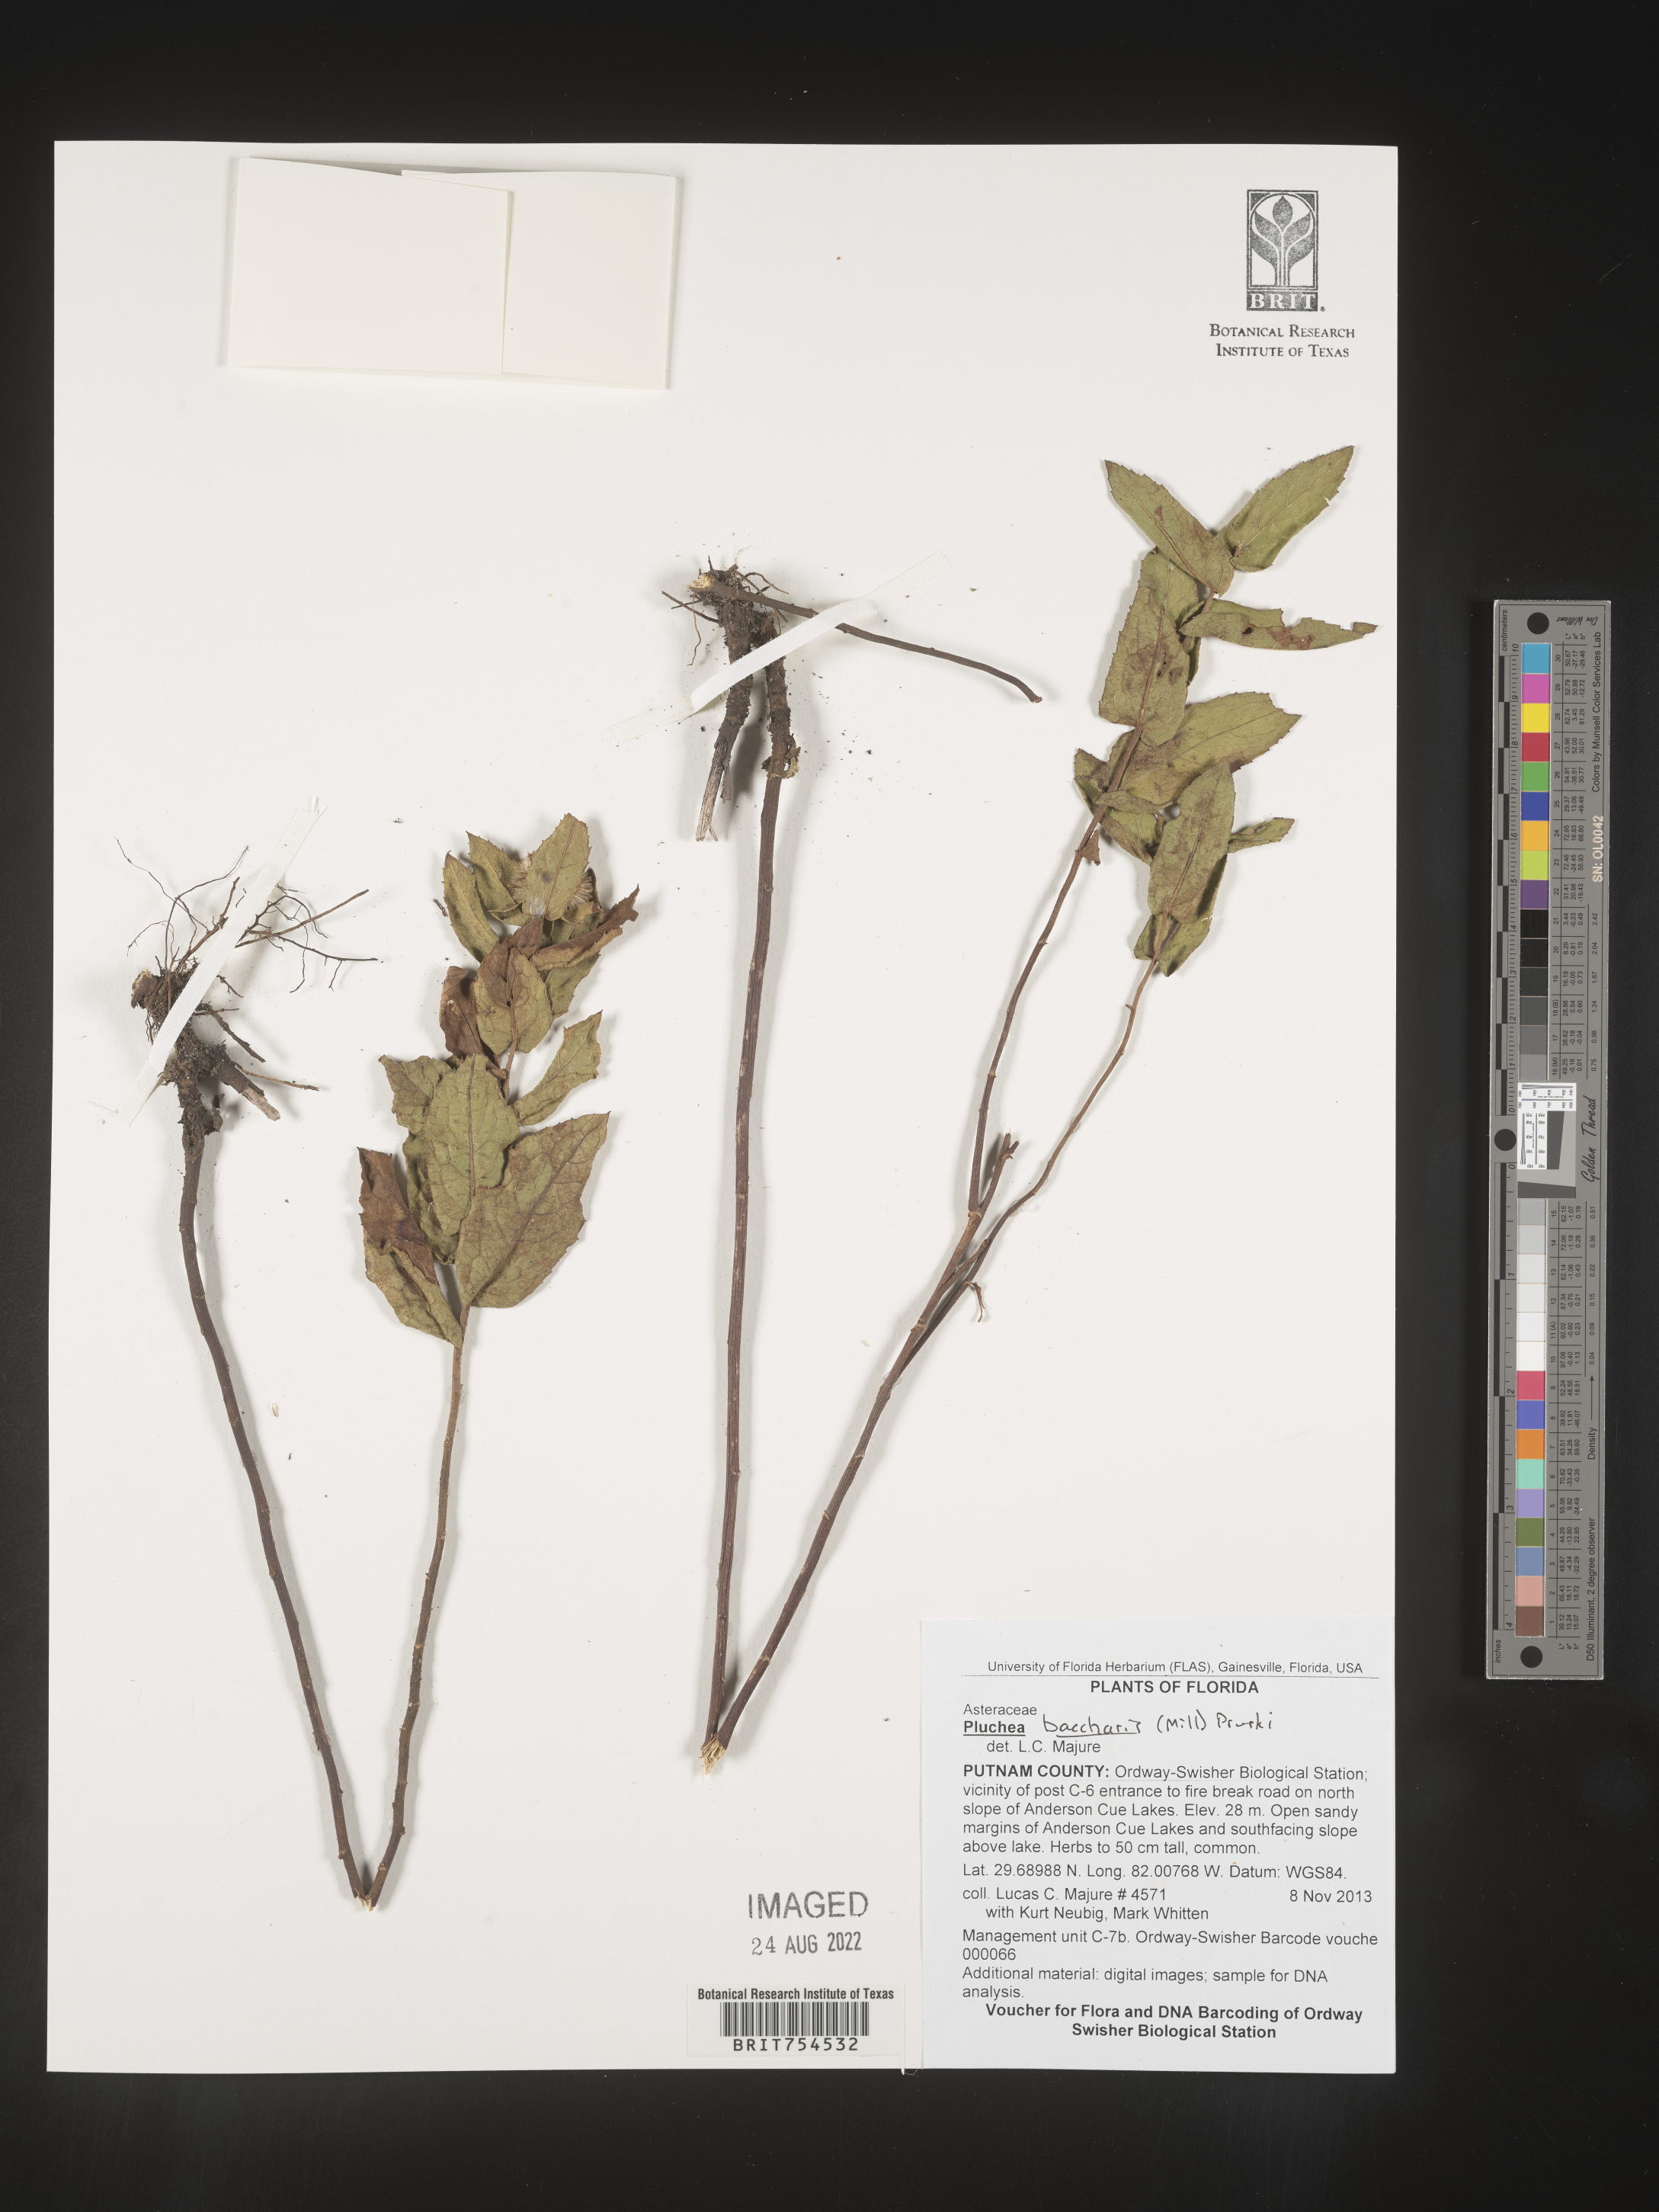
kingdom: Plantae
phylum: Tracheophyta
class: Magnoliopsida
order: Asterales
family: Asteraceae
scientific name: Asteraceae
